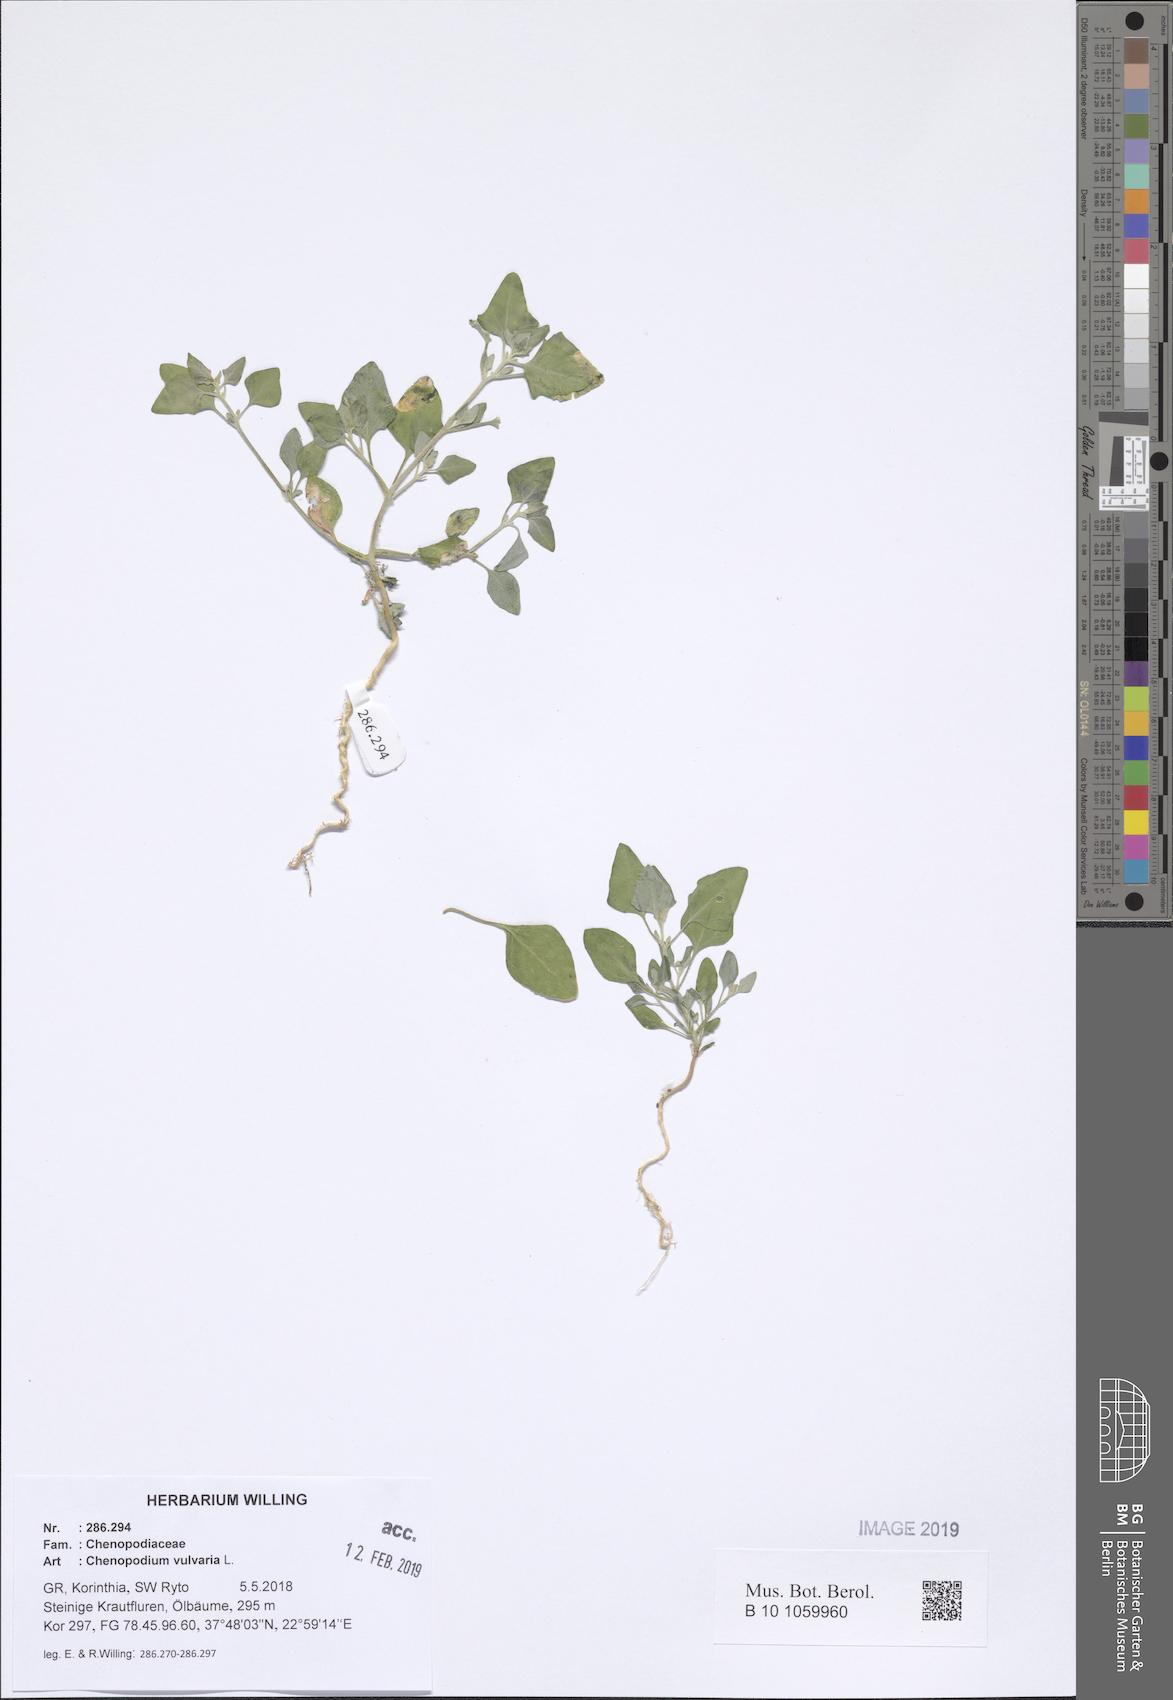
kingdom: Plantae
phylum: Tracheophyta
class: Magnoliopsida
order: Caryophyllales
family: Amaranthaceae
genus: Chenopodium
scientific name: Chenopodium vulvaria
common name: Stinking goosefoot
